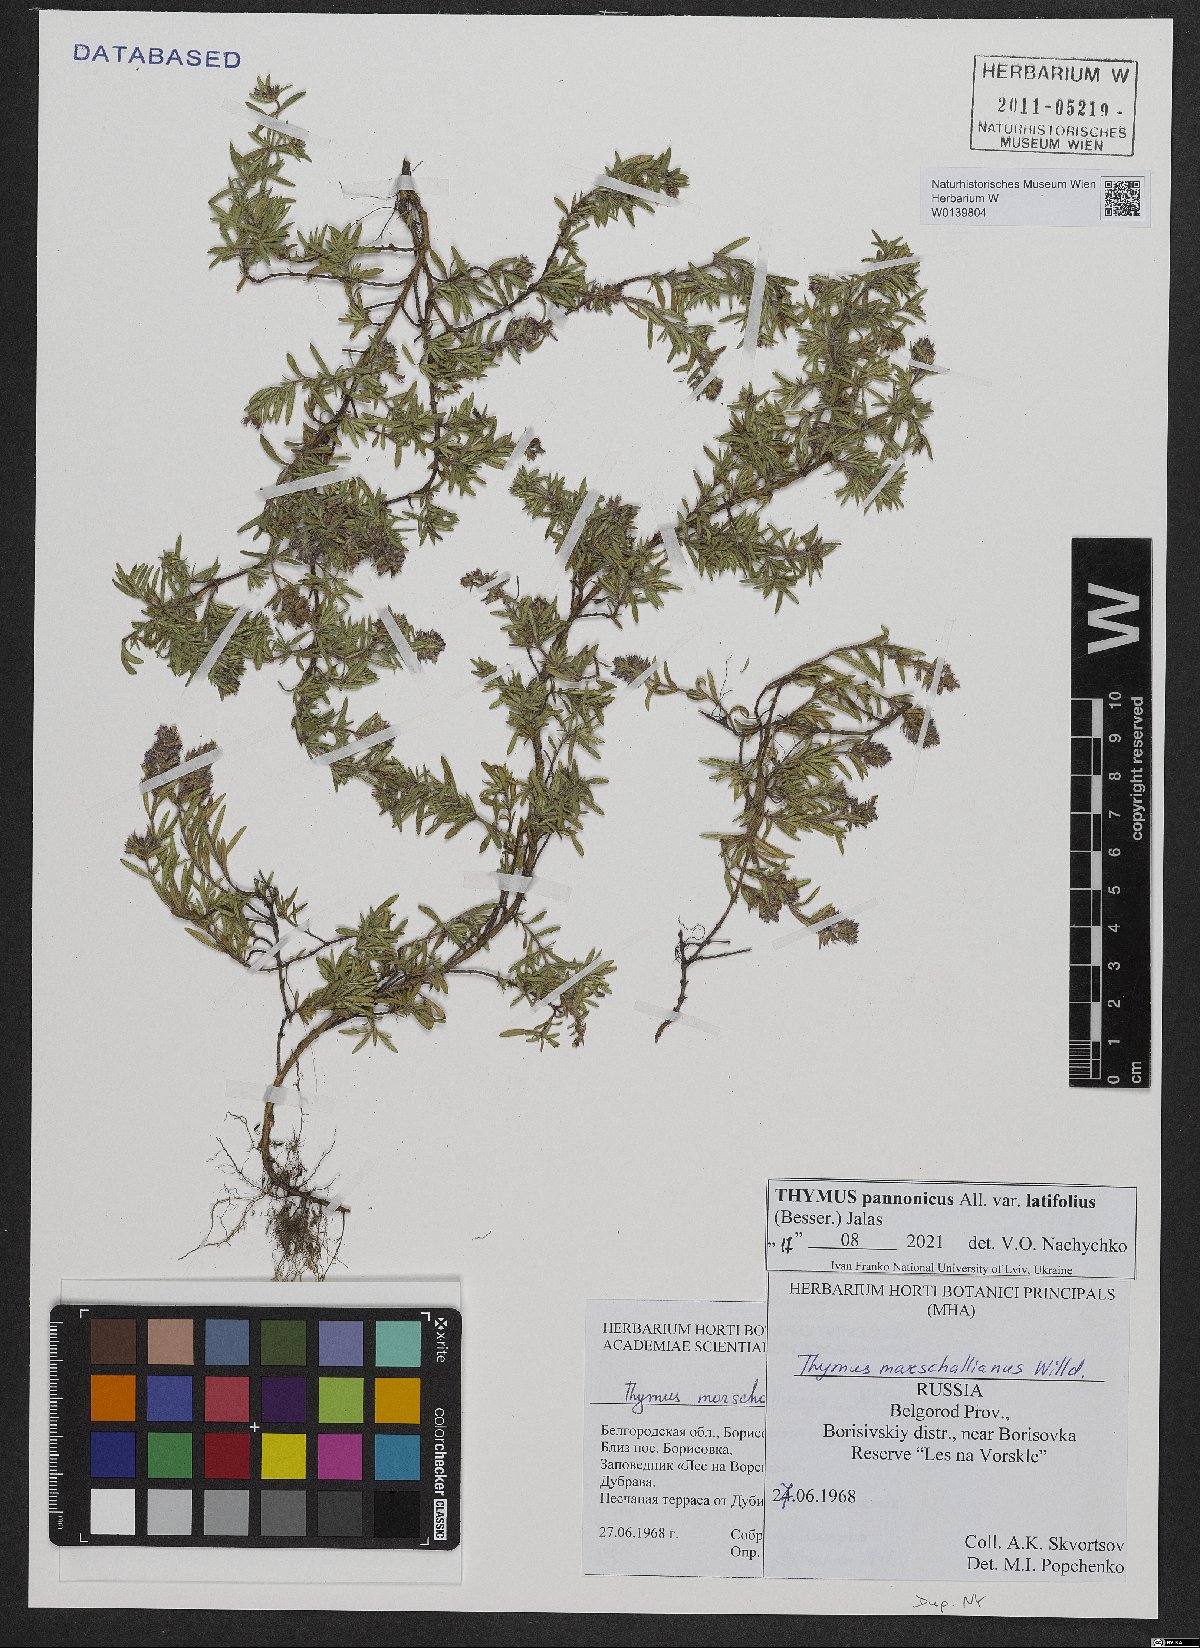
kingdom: Plantae
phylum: Tracheophyta
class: Magnoliopsida
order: Lamiales
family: Lamiaceae
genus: Thymus
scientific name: Thymus pannonicus
